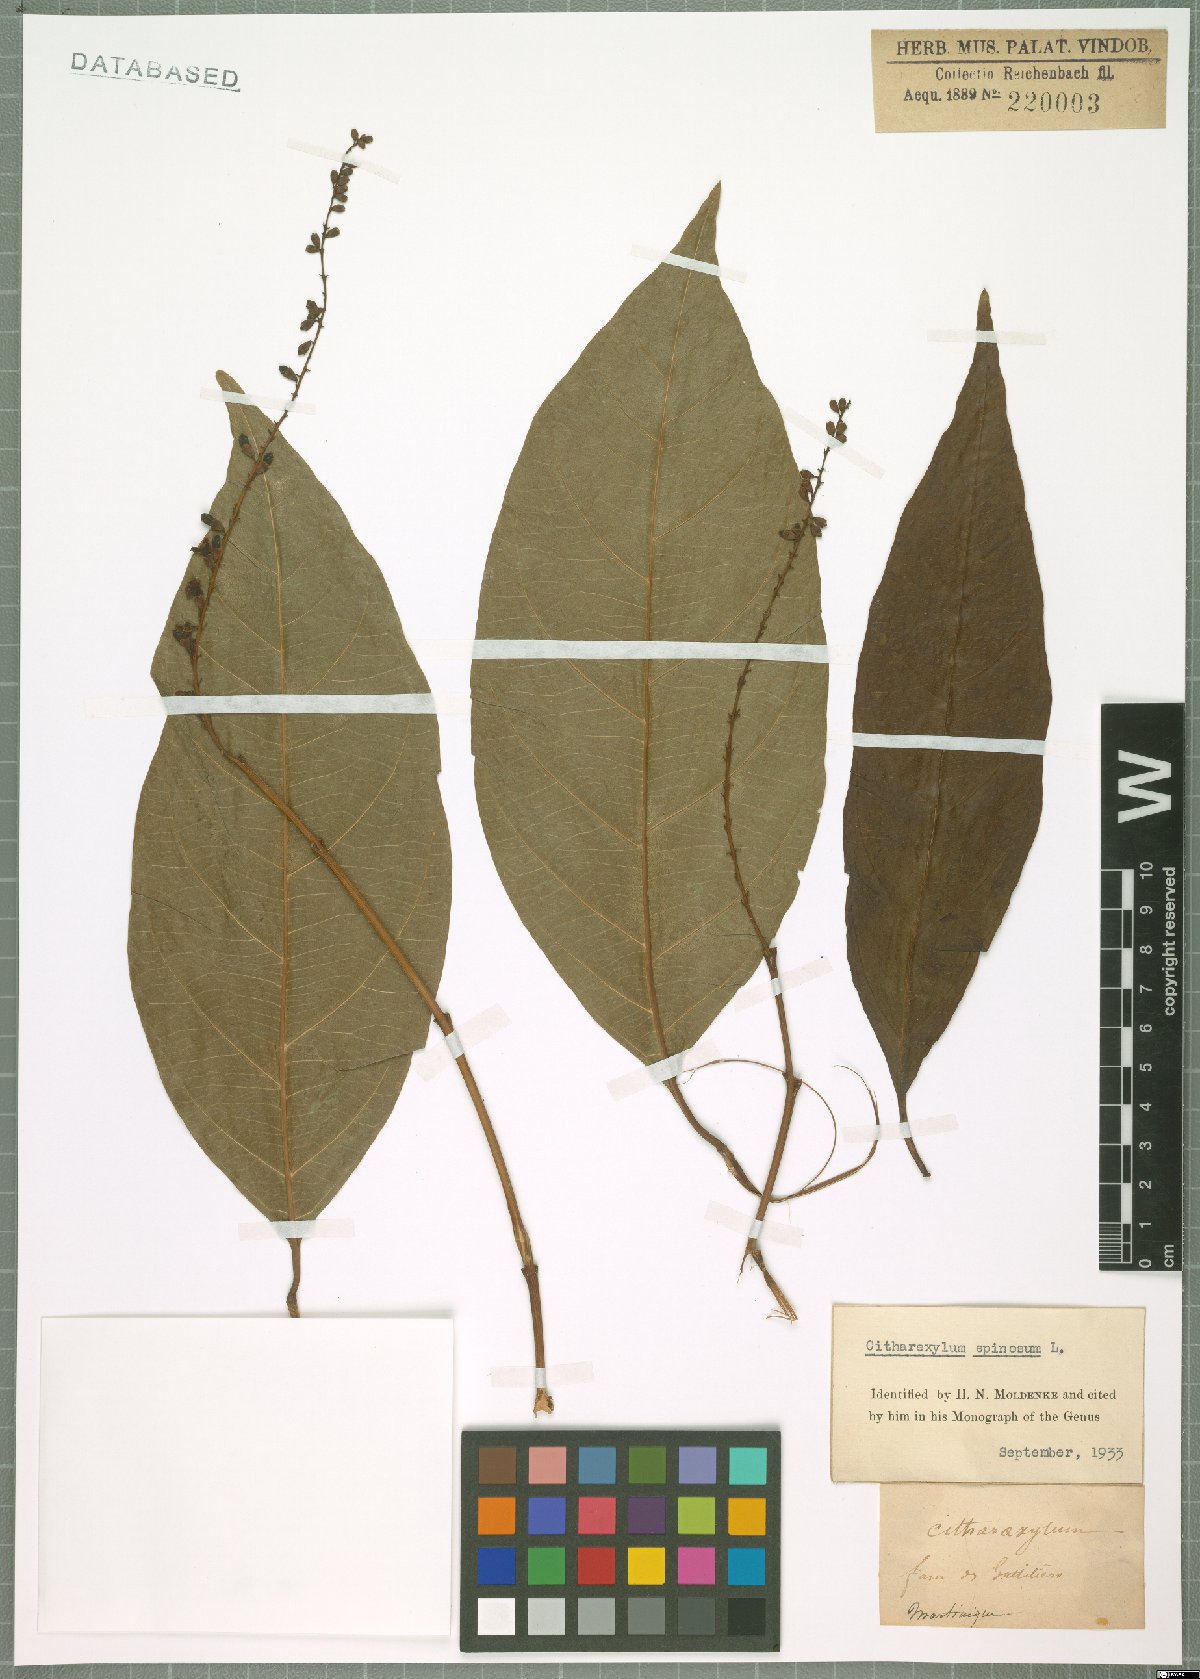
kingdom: Plantae
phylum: Tracheophyta
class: Magnoliopsida
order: Lamiales
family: Verbenaceae
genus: Citharexylum
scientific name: Citharexylum spinosum
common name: Fiddlewood
